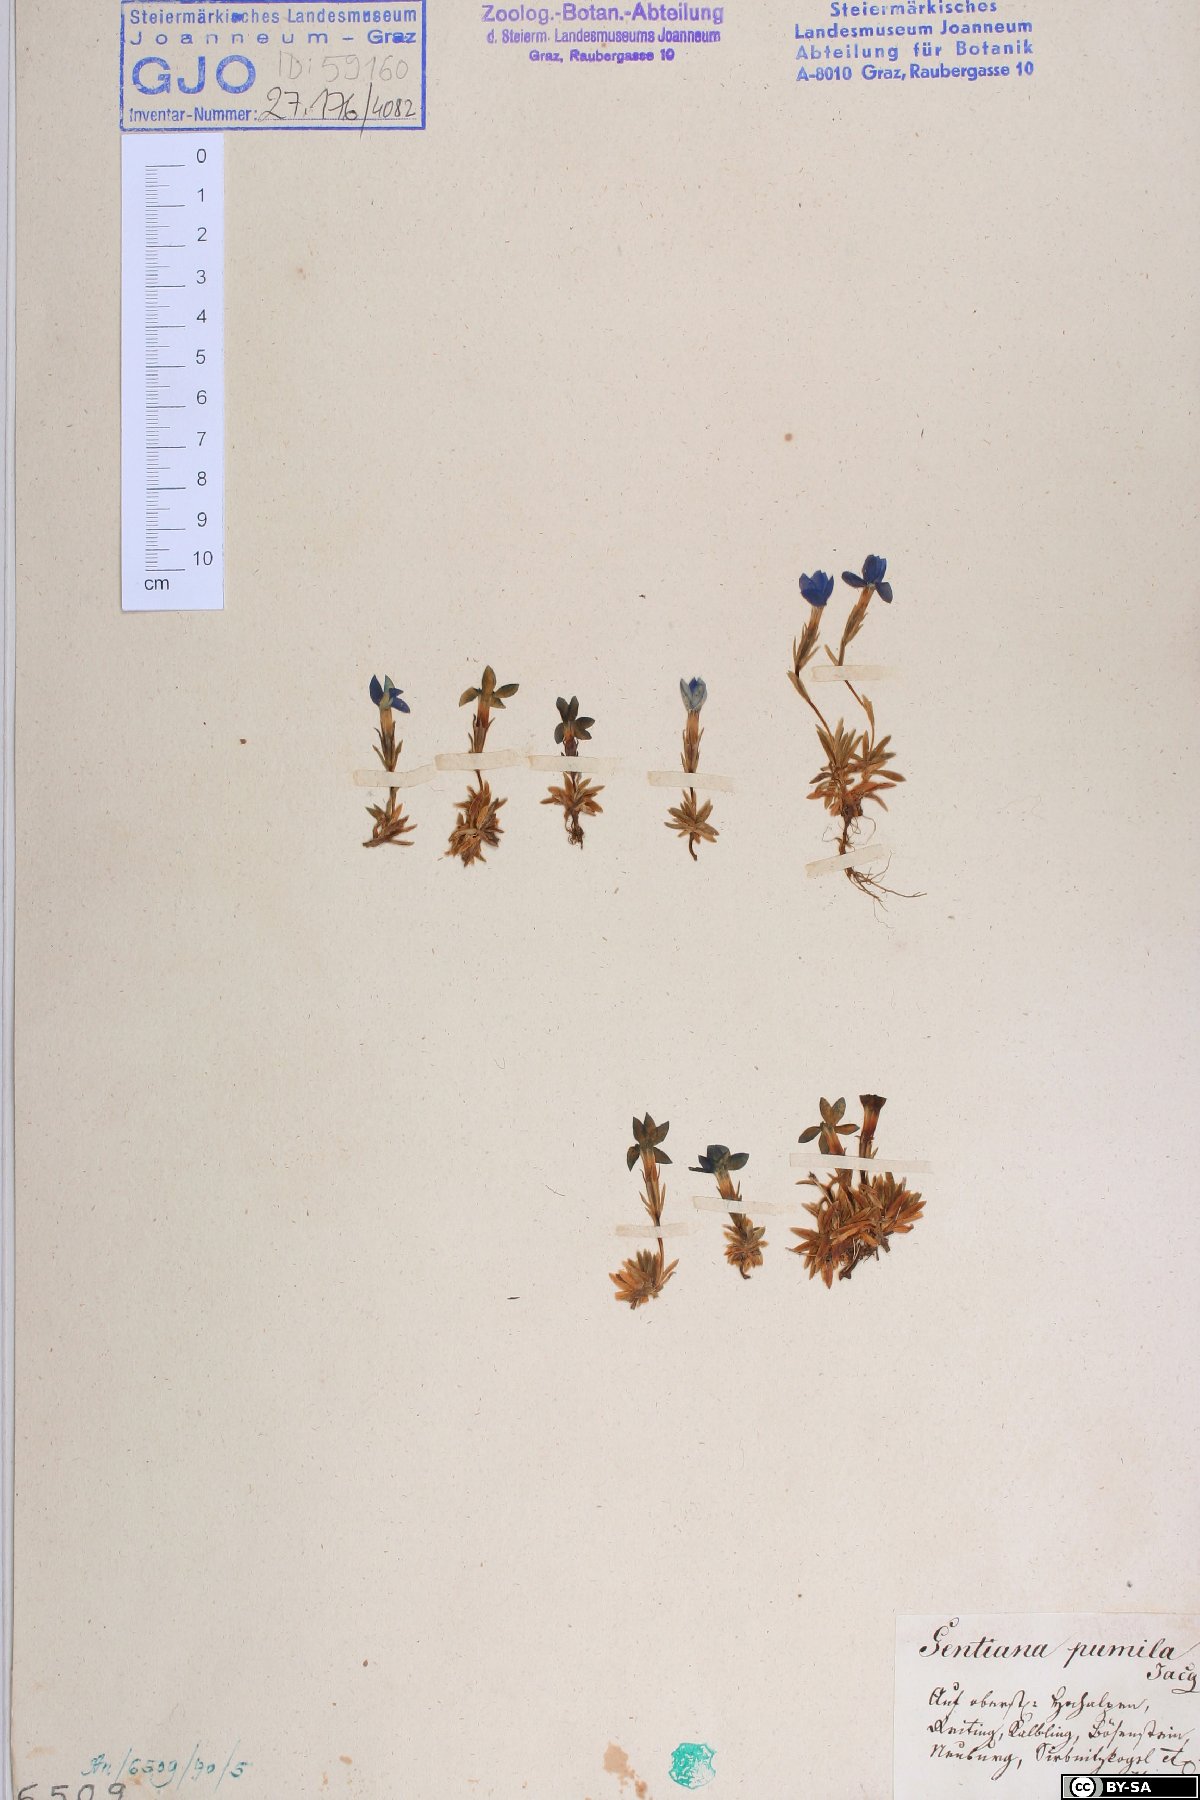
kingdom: Plantae
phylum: Tracheophyta
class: Magnoliopsida
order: Gentianales
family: Gentianaceae
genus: Gentiana
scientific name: Gentiana pumila
